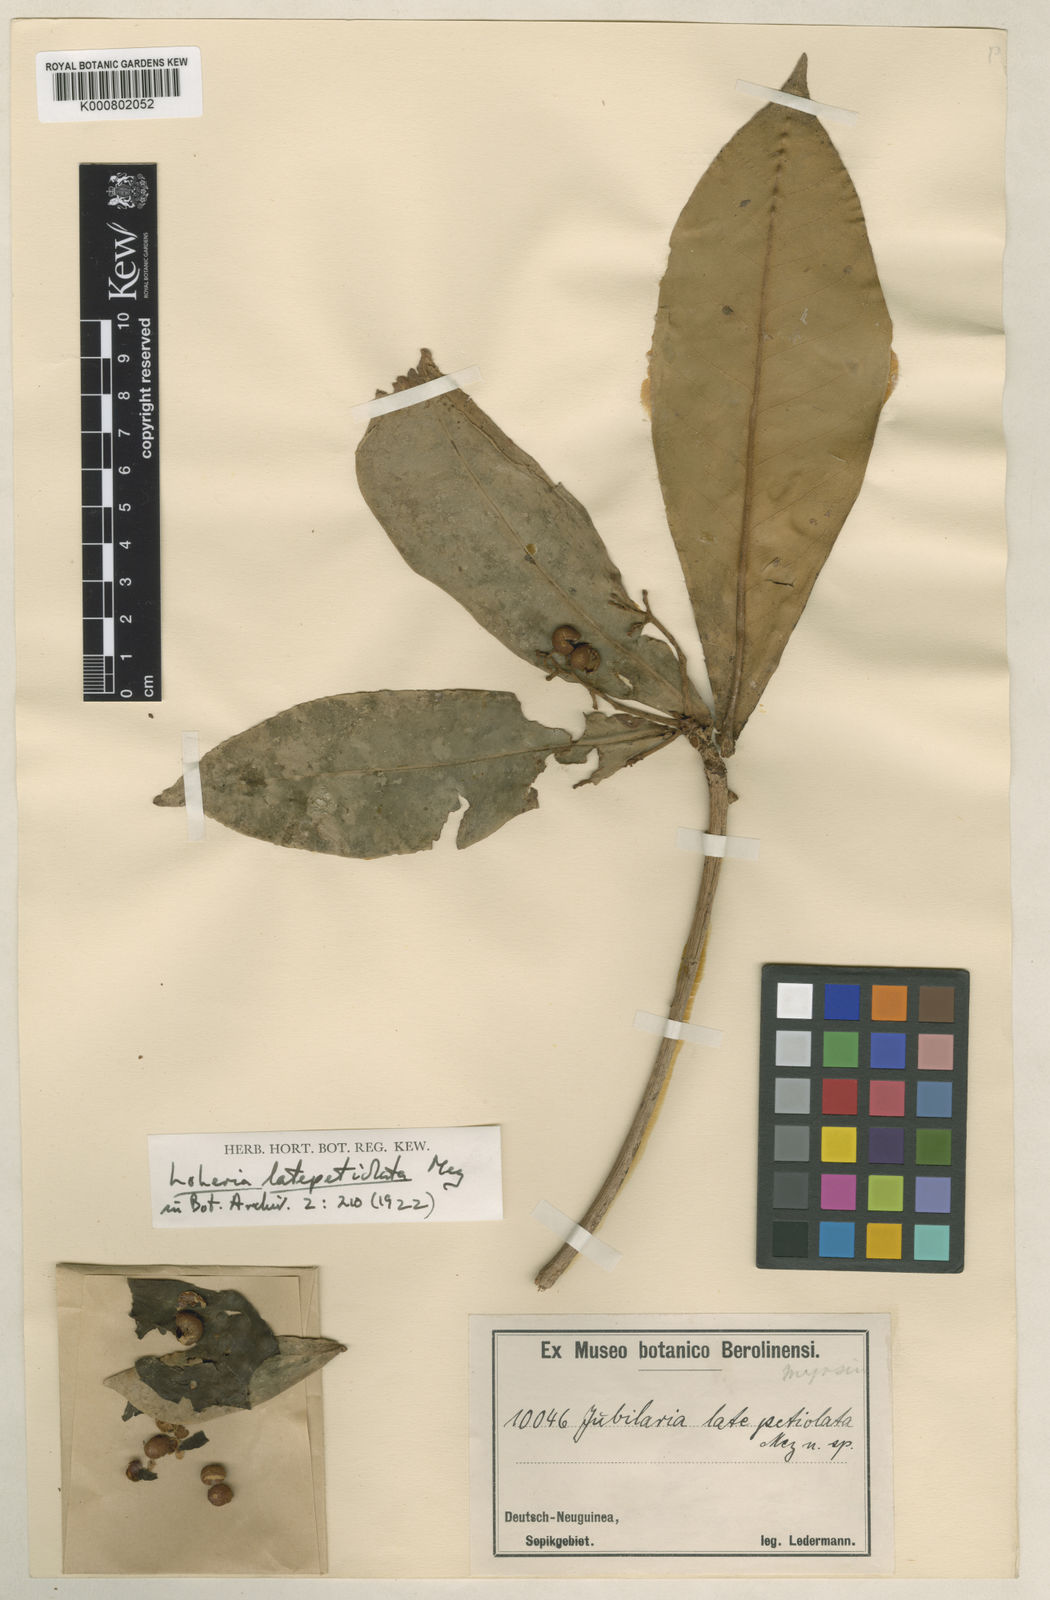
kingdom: Plantae
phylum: Tracheophyta
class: Magnoliopsida
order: Ericales
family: Primulaceae
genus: Discocalyx
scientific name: Discocalyx latepetiolata
